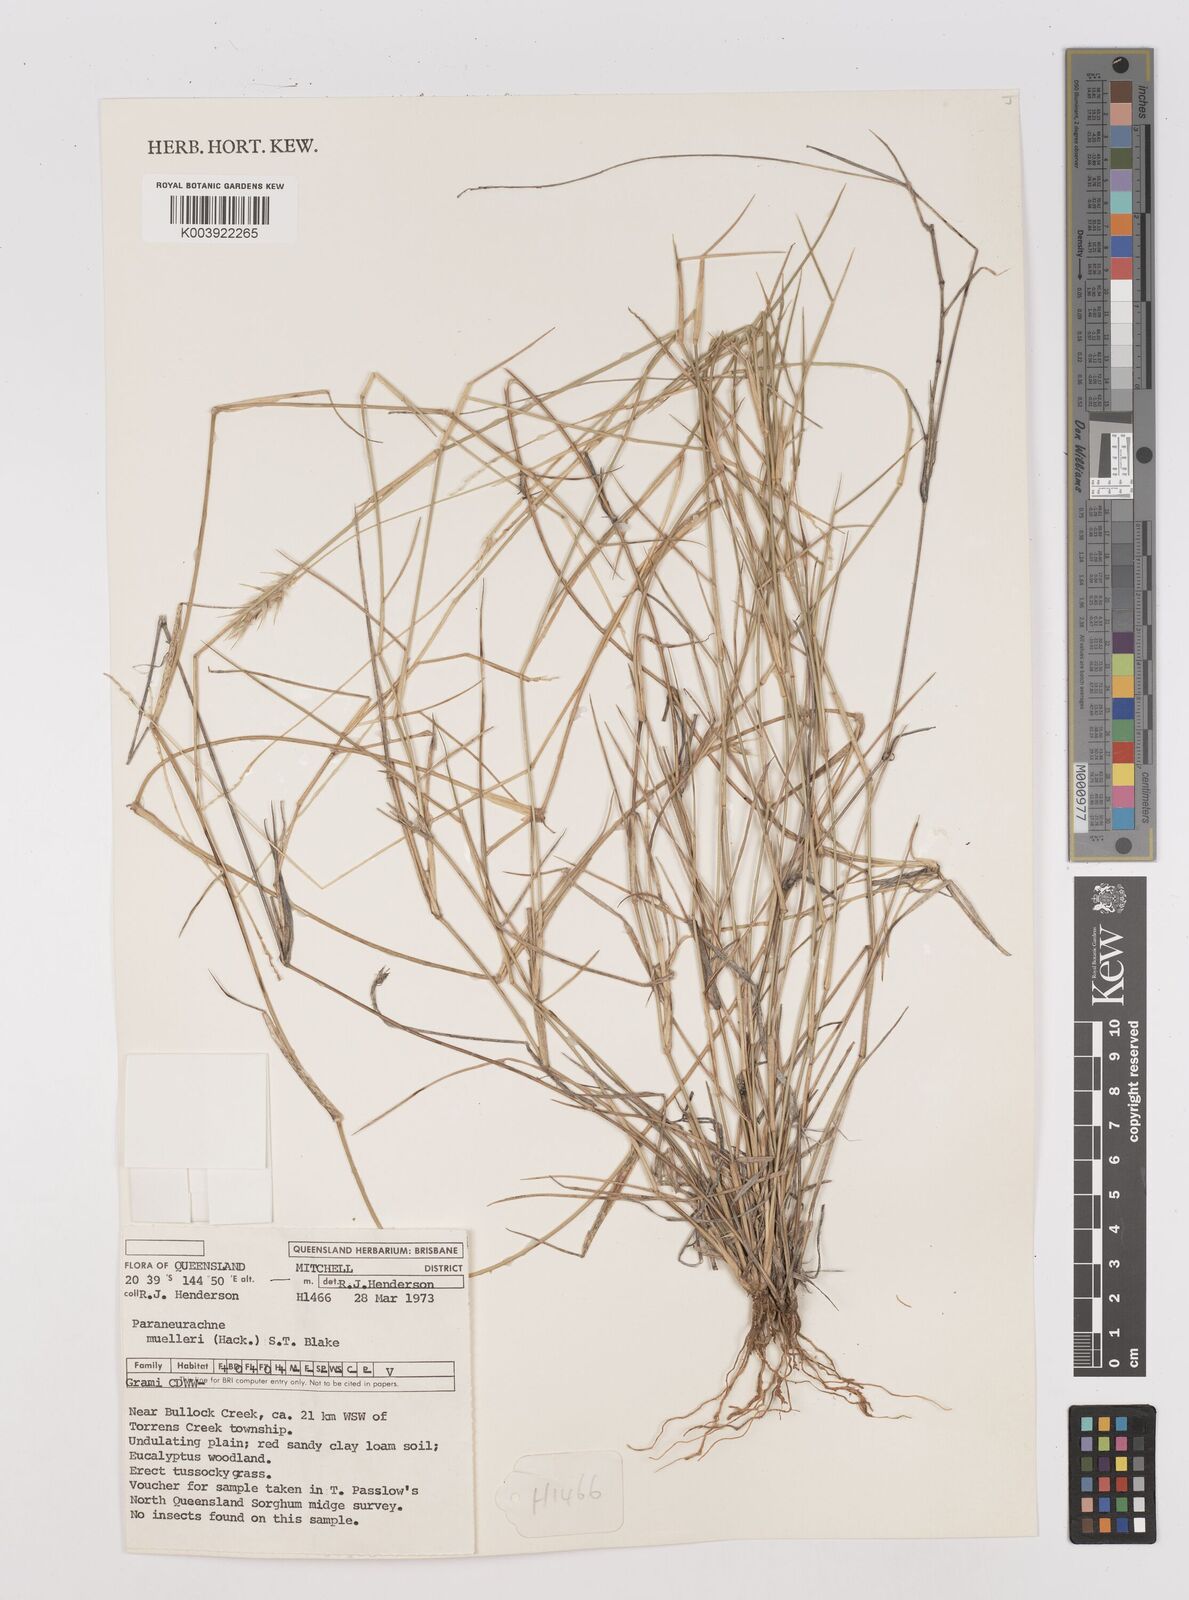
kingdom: Plantae
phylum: Tracheophyta
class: Liliopsida
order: Poales
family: Poaceae
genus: Neurachne
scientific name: Neurachne muelleri
